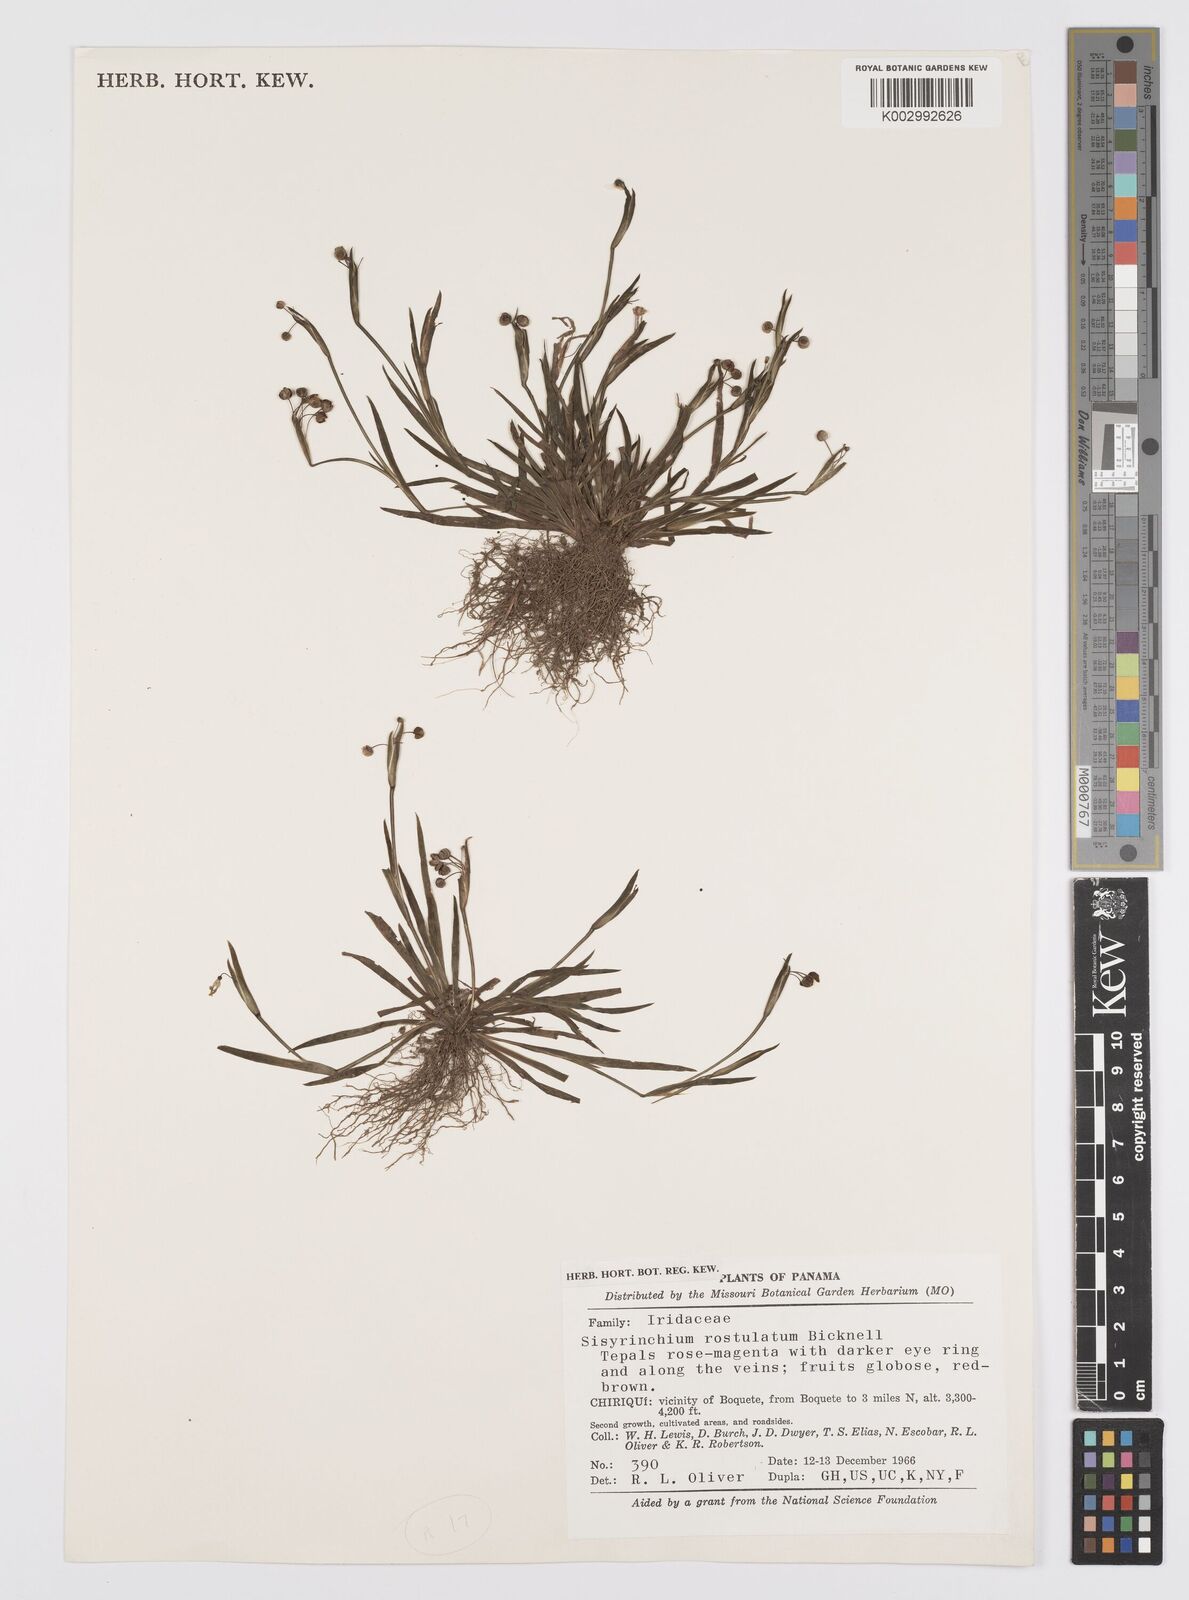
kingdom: Plantae
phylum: Tracheophyta
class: Liliopsida
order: Asparagales
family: Iridaceae
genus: Sisyrinchium
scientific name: Sisyrinchium
